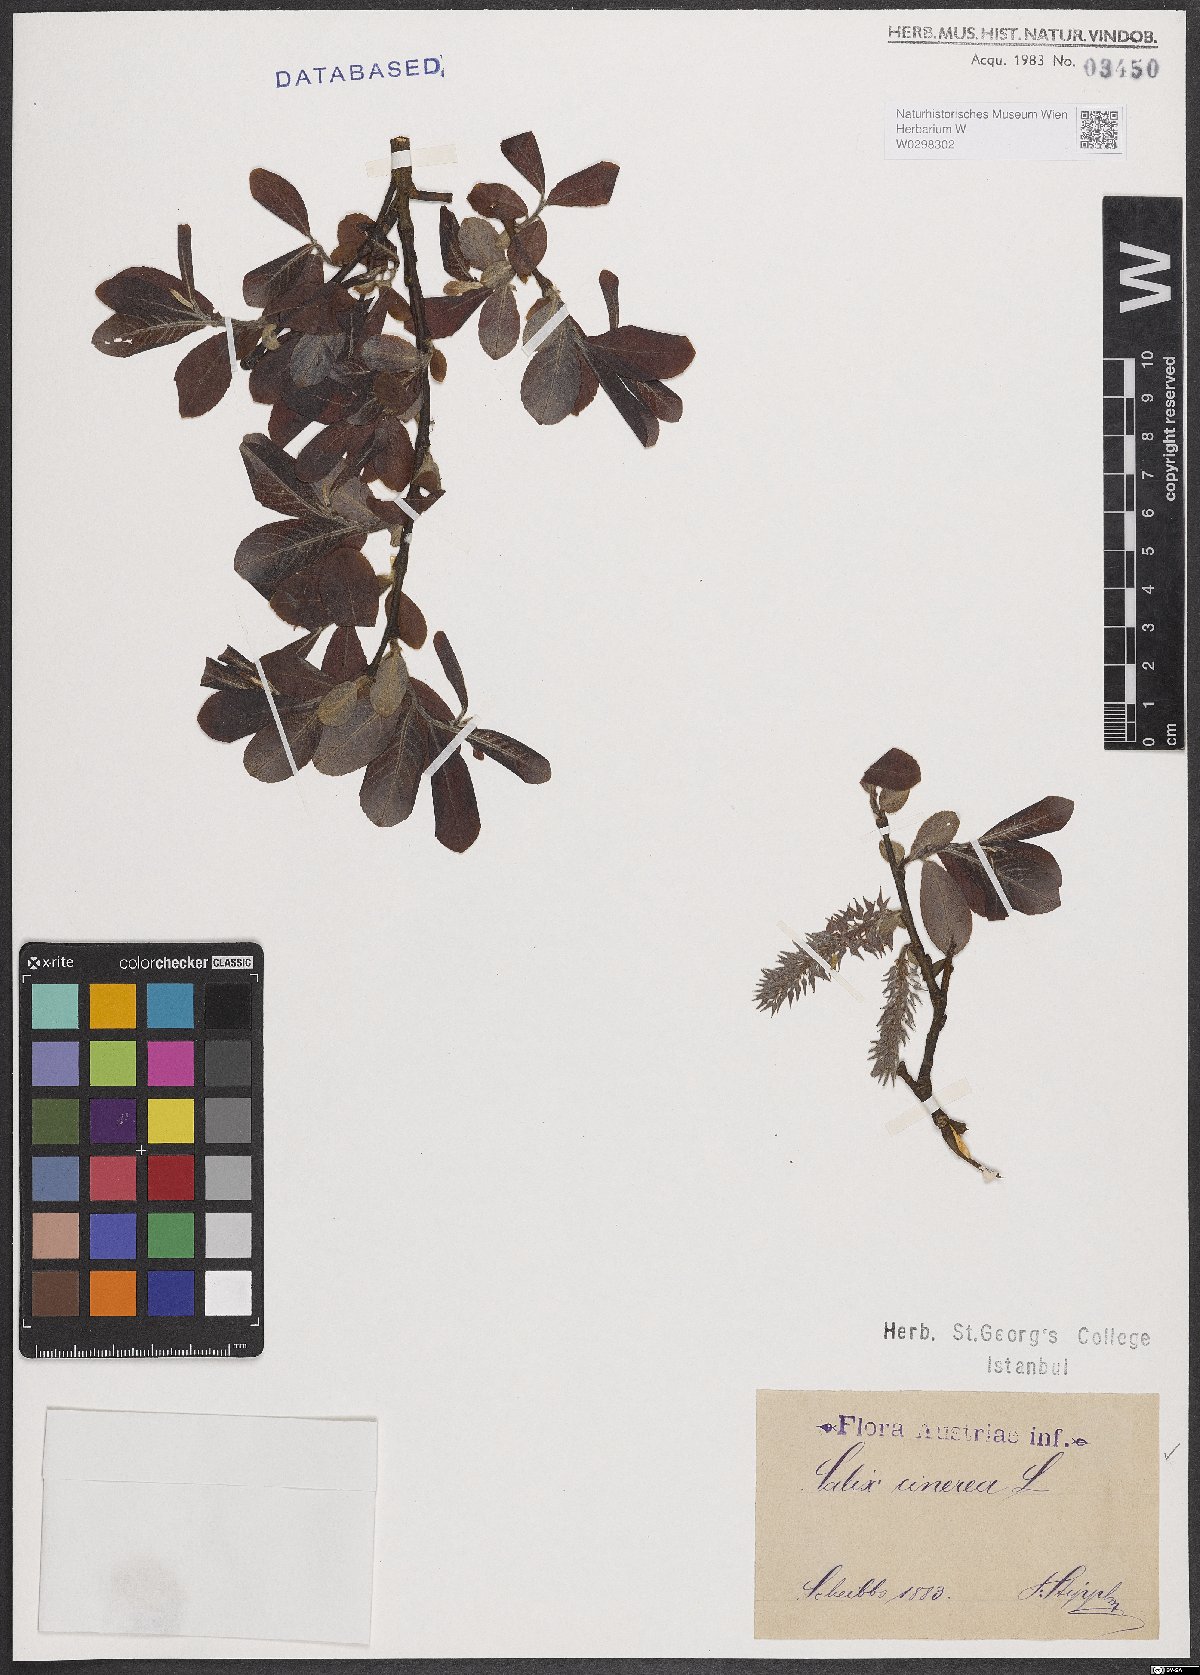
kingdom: Plantae
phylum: Tracheophyta
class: Magnoliopsida
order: Malpighiales
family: Salicaceae
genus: Salix
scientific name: Salix cinerea
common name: Common sallow
